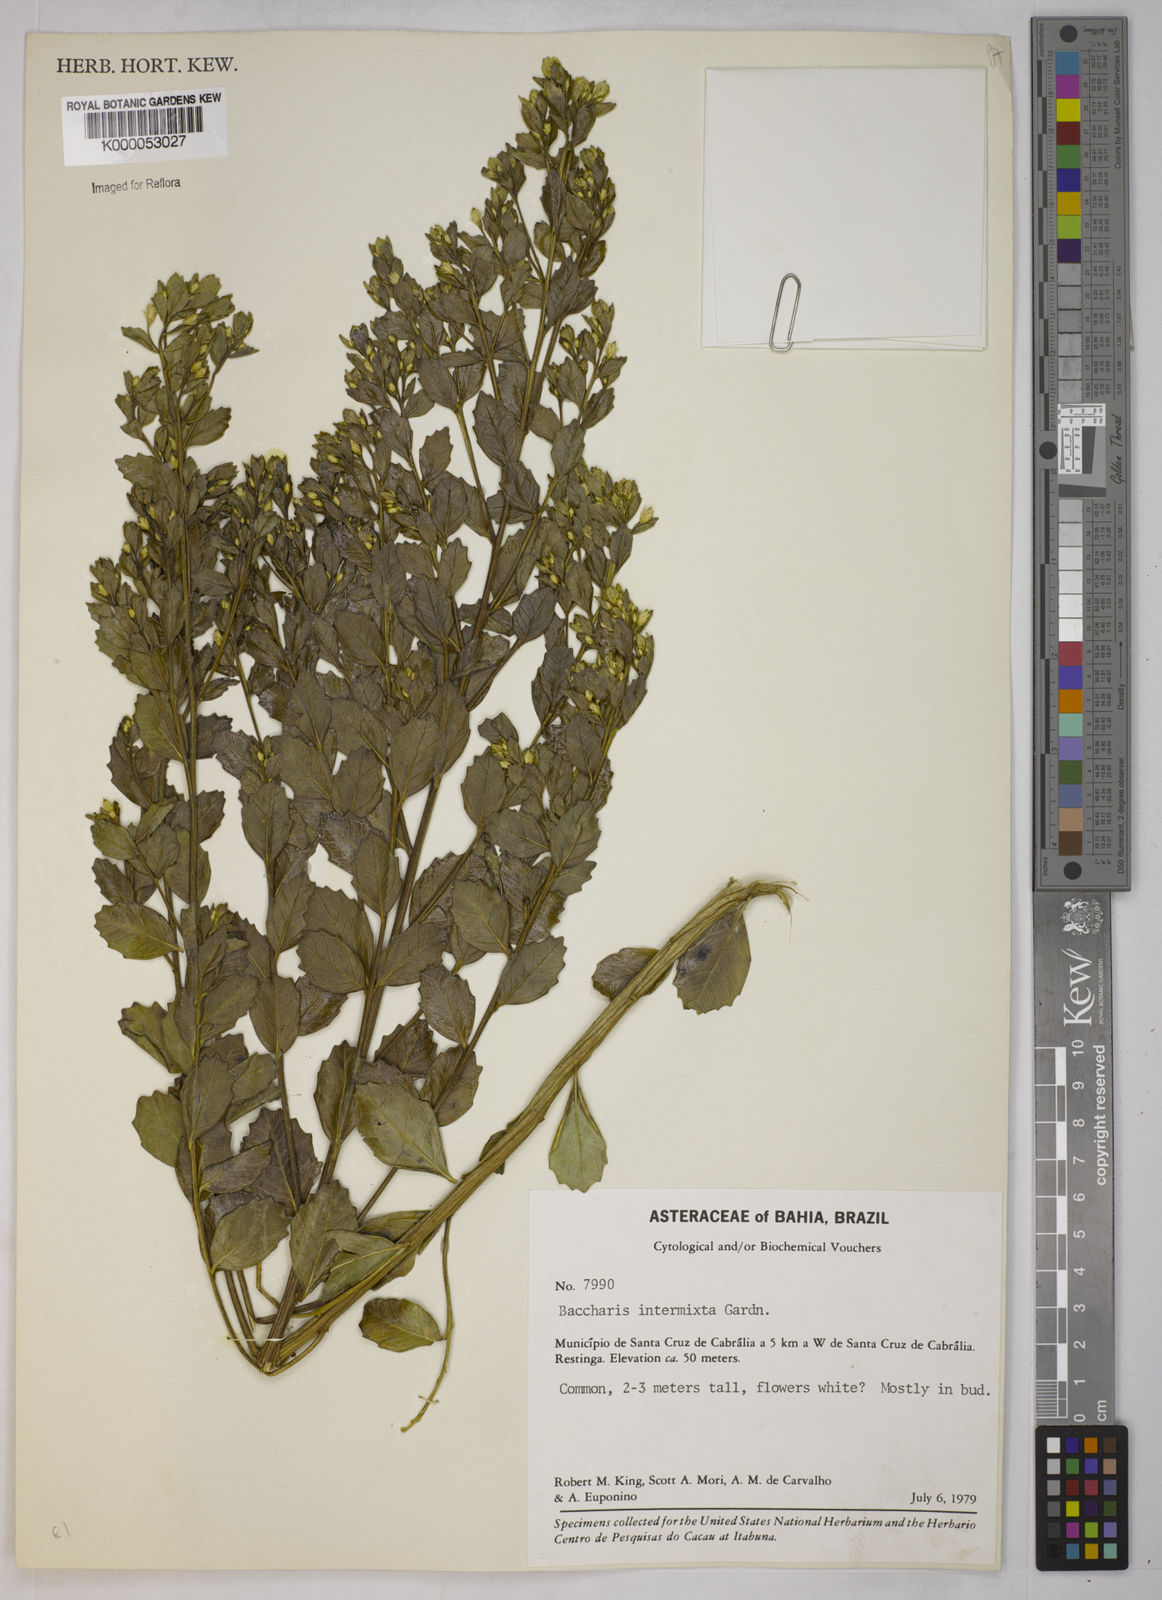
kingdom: Plantae
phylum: Tracheophyta
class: Magnoliopsida
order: Asterales
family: Asteraceae
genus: Baccharis
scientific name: Baccharis intermixta
